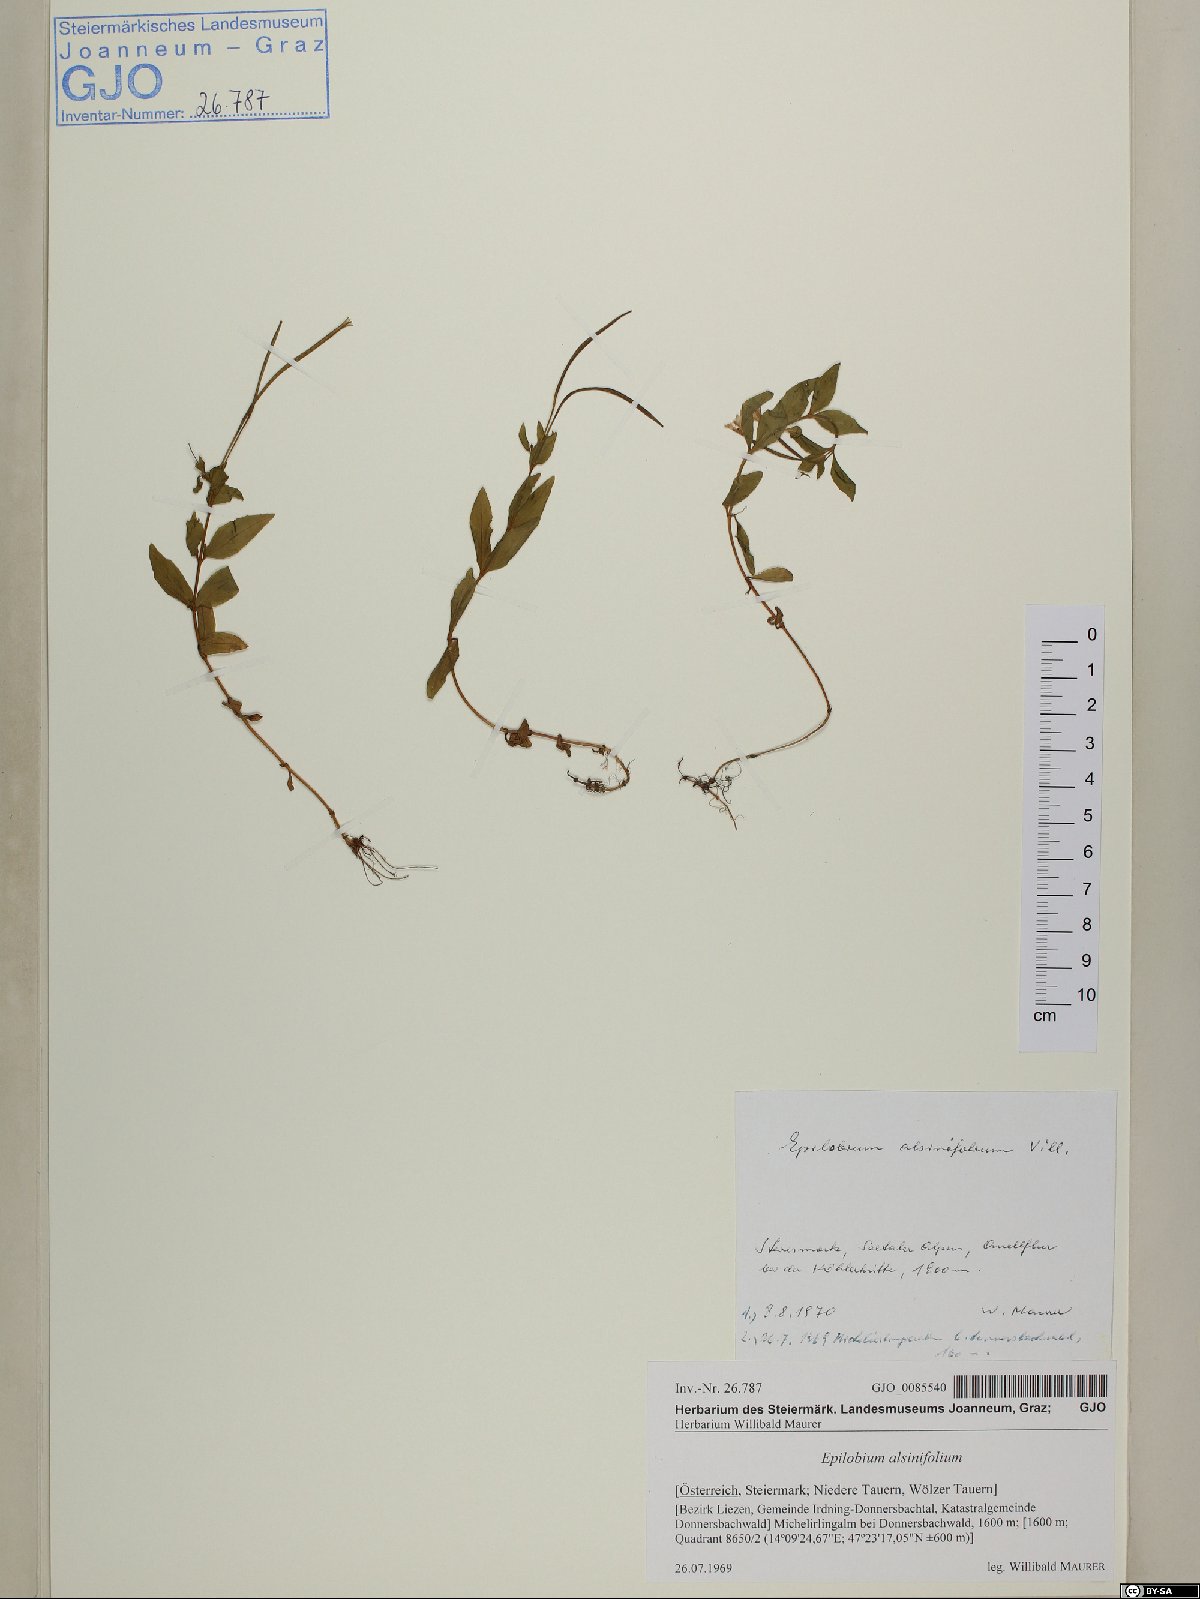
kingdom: Plantae
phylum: Tracheophyta
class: Magnoliopsida
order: Myrtales
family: Onagraceae
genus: Epilobium
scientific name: Epilobium alsinifolium
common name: Chickweed willowherb
